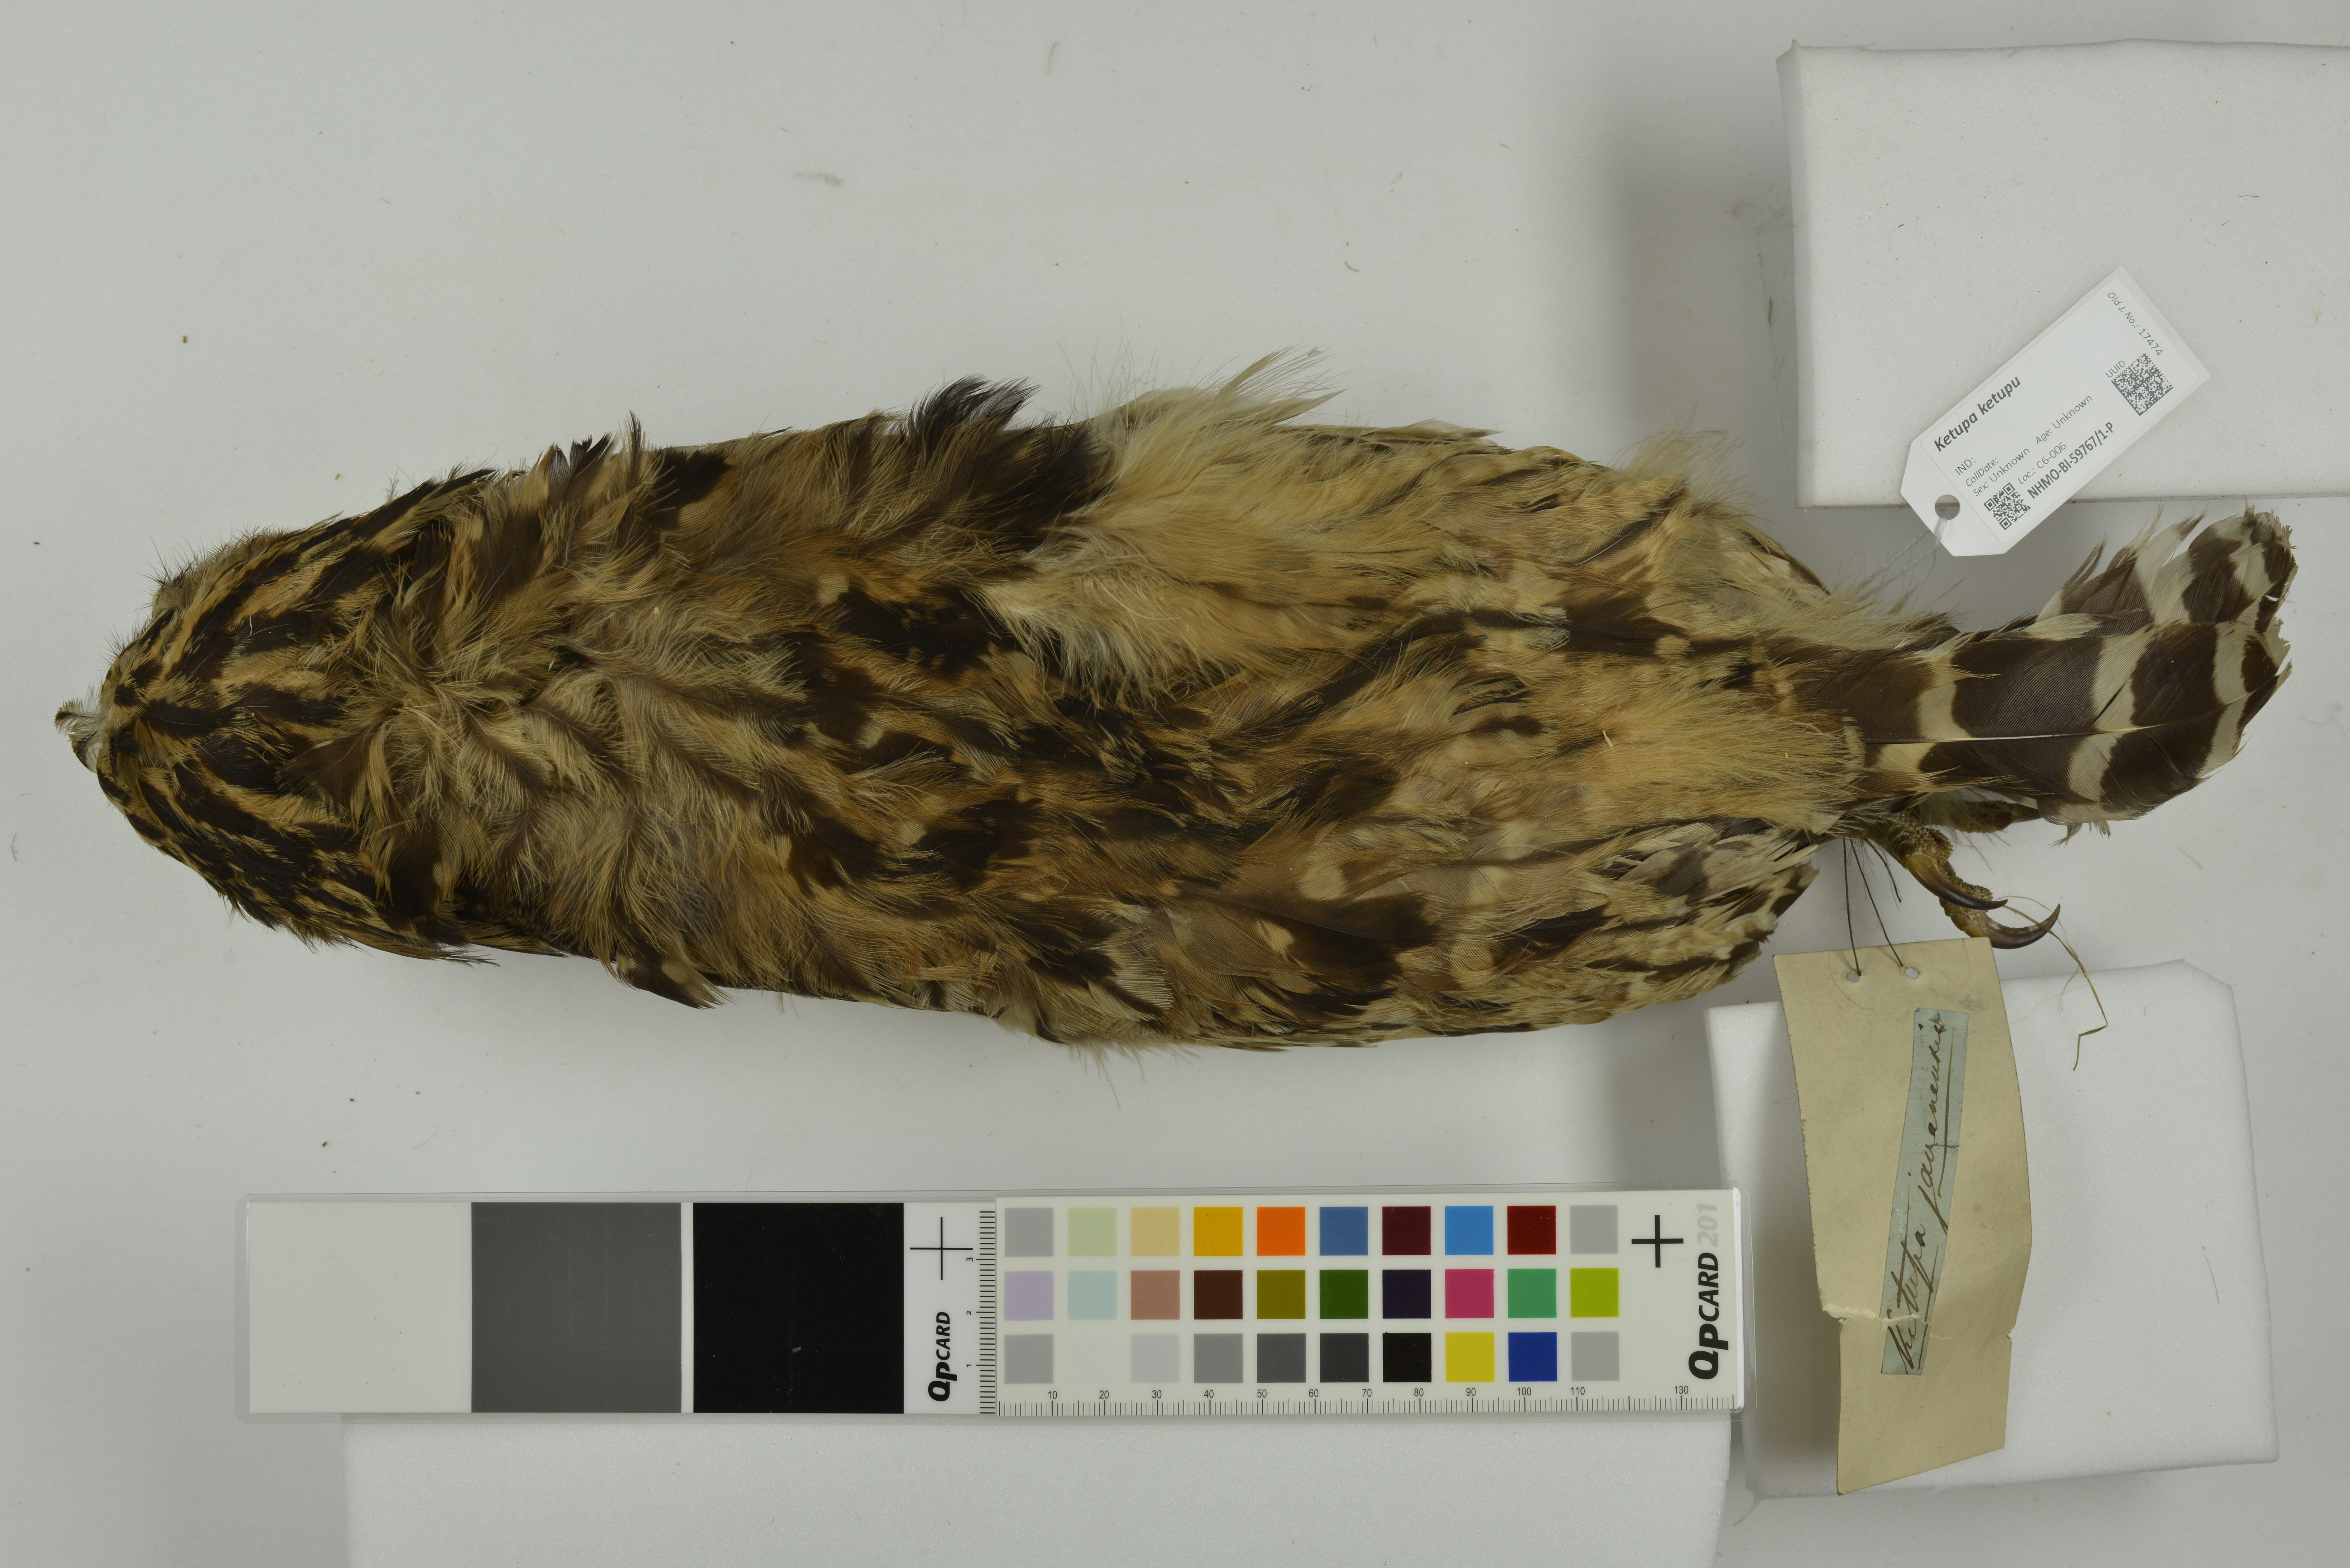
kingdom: Animalia
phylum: Chordata
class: Aves
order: Strigiformes
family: Strigidae
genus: Ketupa
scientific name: Ketupa ketupu
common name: Buffy fish-owl
